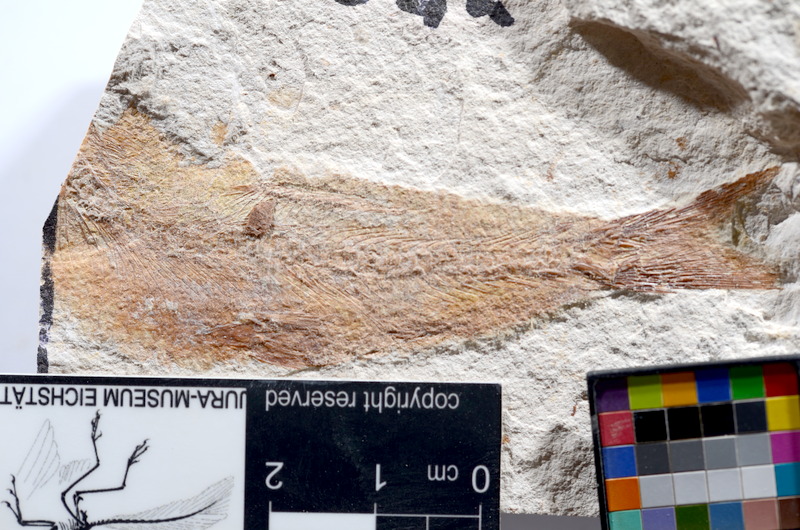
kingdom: Animalia
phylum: Chordata
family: Ascalaboidae
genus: Tharsis
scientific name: Tharsis dubius
